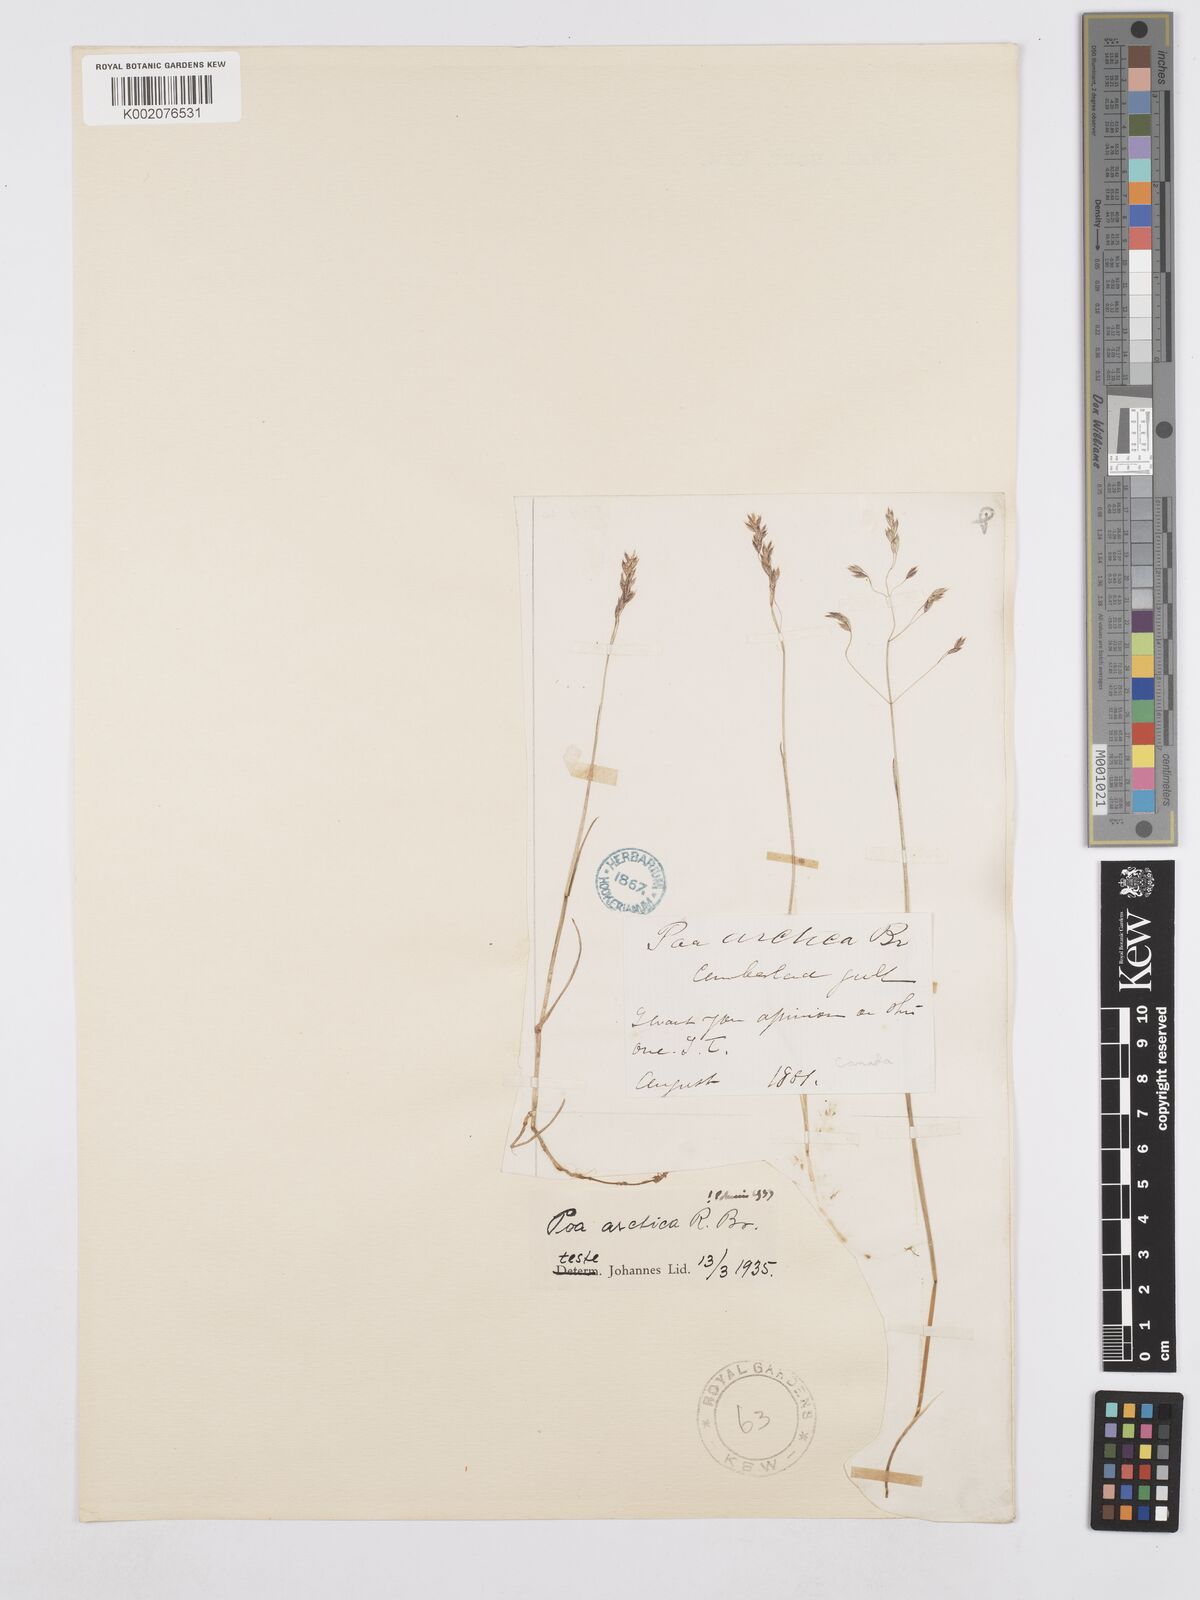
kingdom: Plantae
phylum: Tracheophyta
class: Liliopsida
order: Poales
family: Poaceae
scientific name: Poaceae
